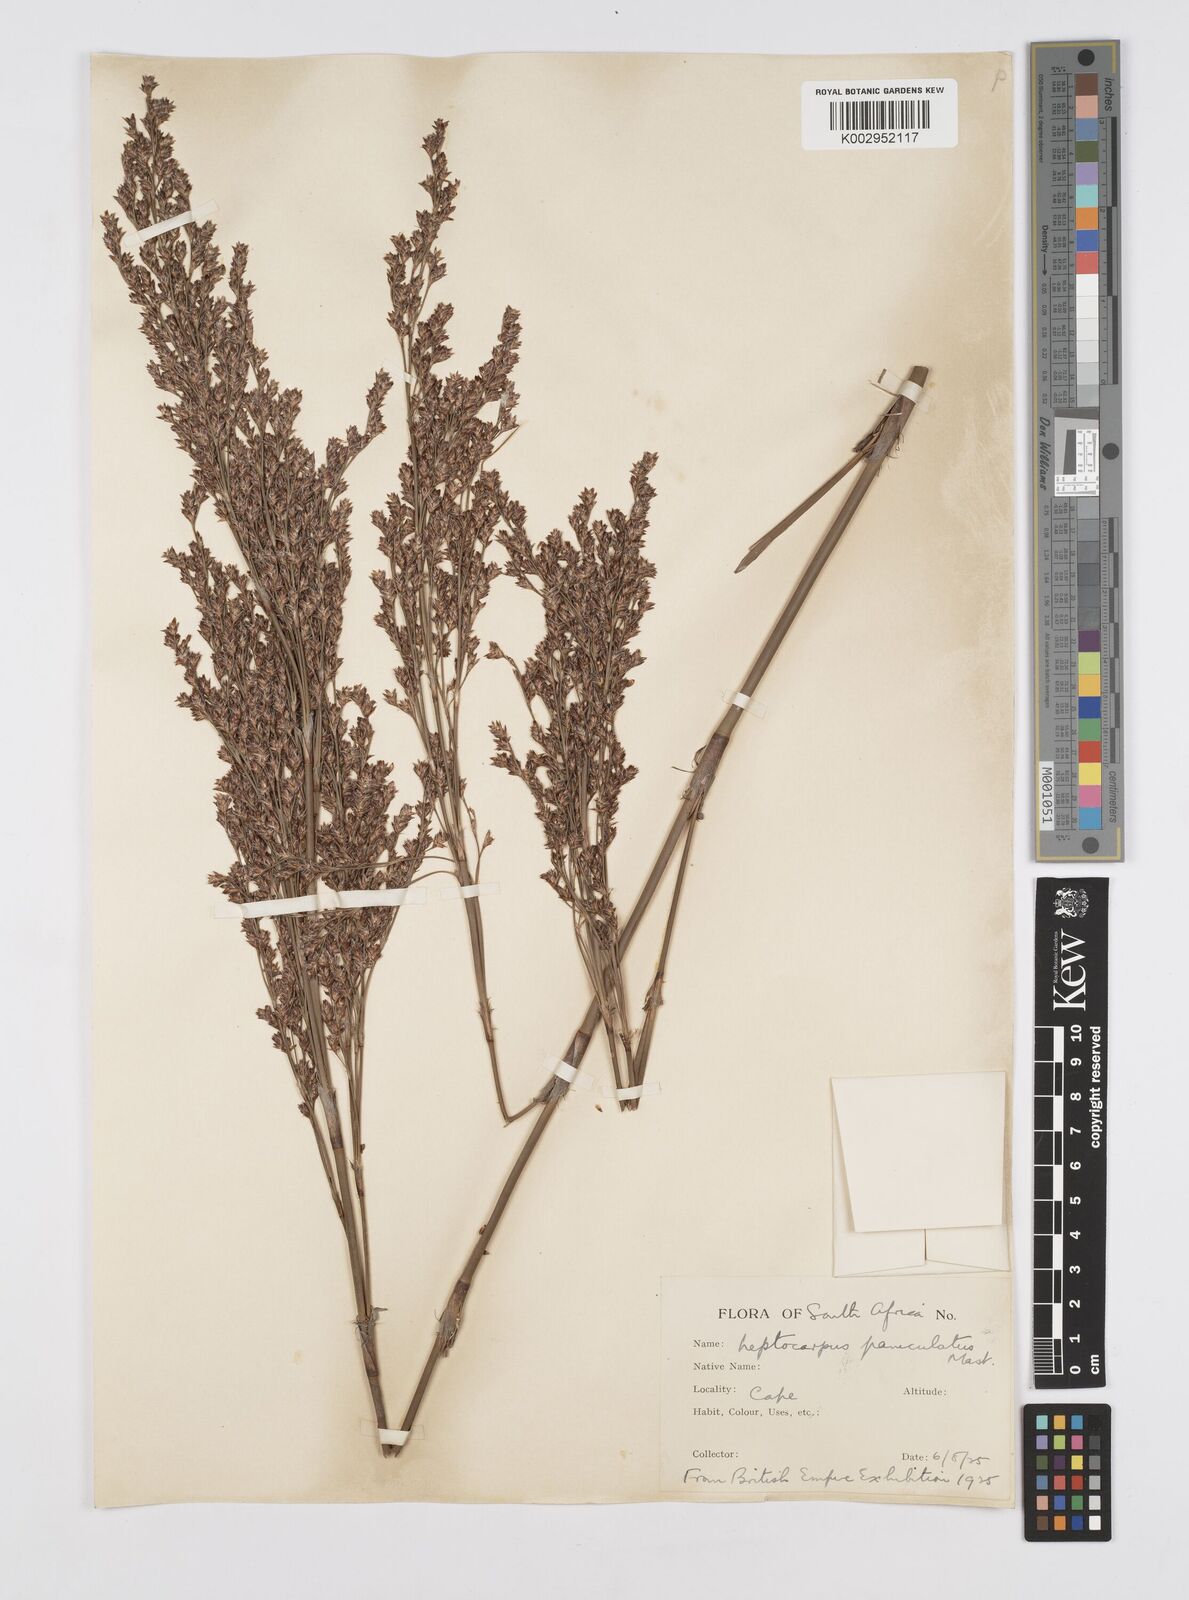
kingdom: Plantae
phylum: Tracheophyta
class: Liliopsida
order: Poales
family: Restionaceae
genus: Restio
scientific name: Restio paniculatus
